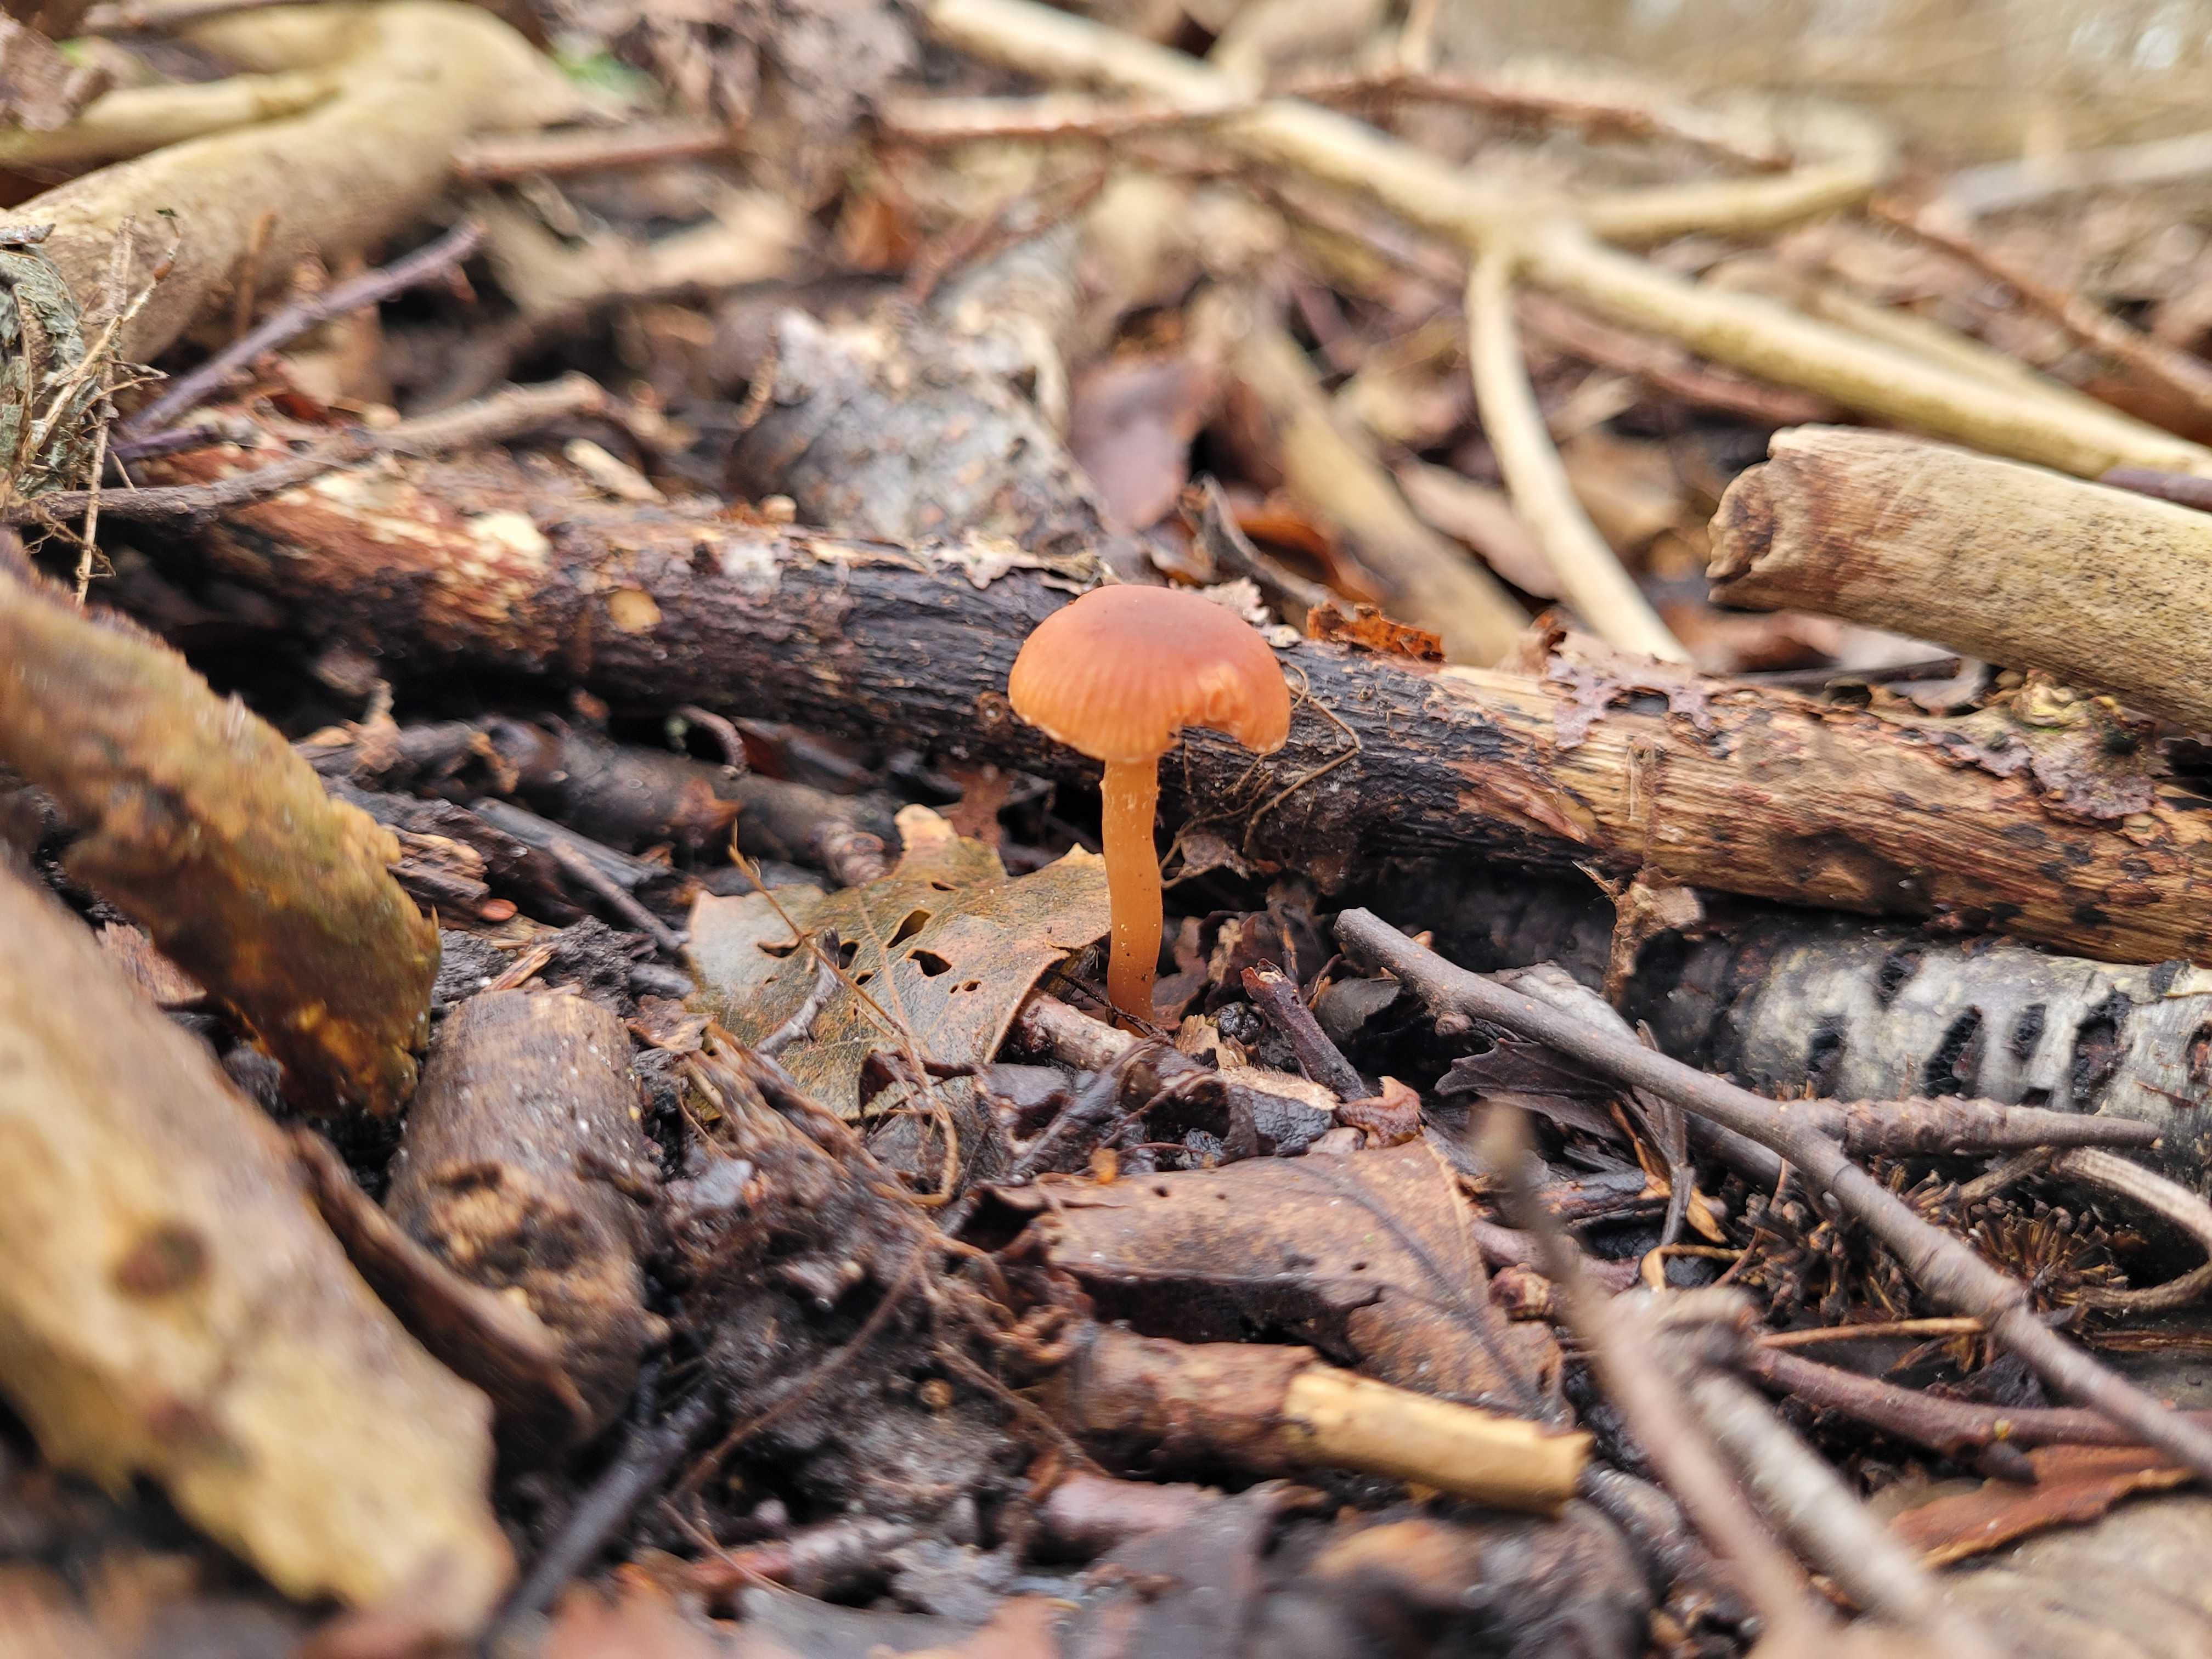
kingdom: Fungi
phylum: Basidiomycota
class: Agaricomycetes
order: Agaricales
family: Tubariaceae
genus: Tubaria
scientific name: Tubaria furfuracea
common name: kliddet fnughat
